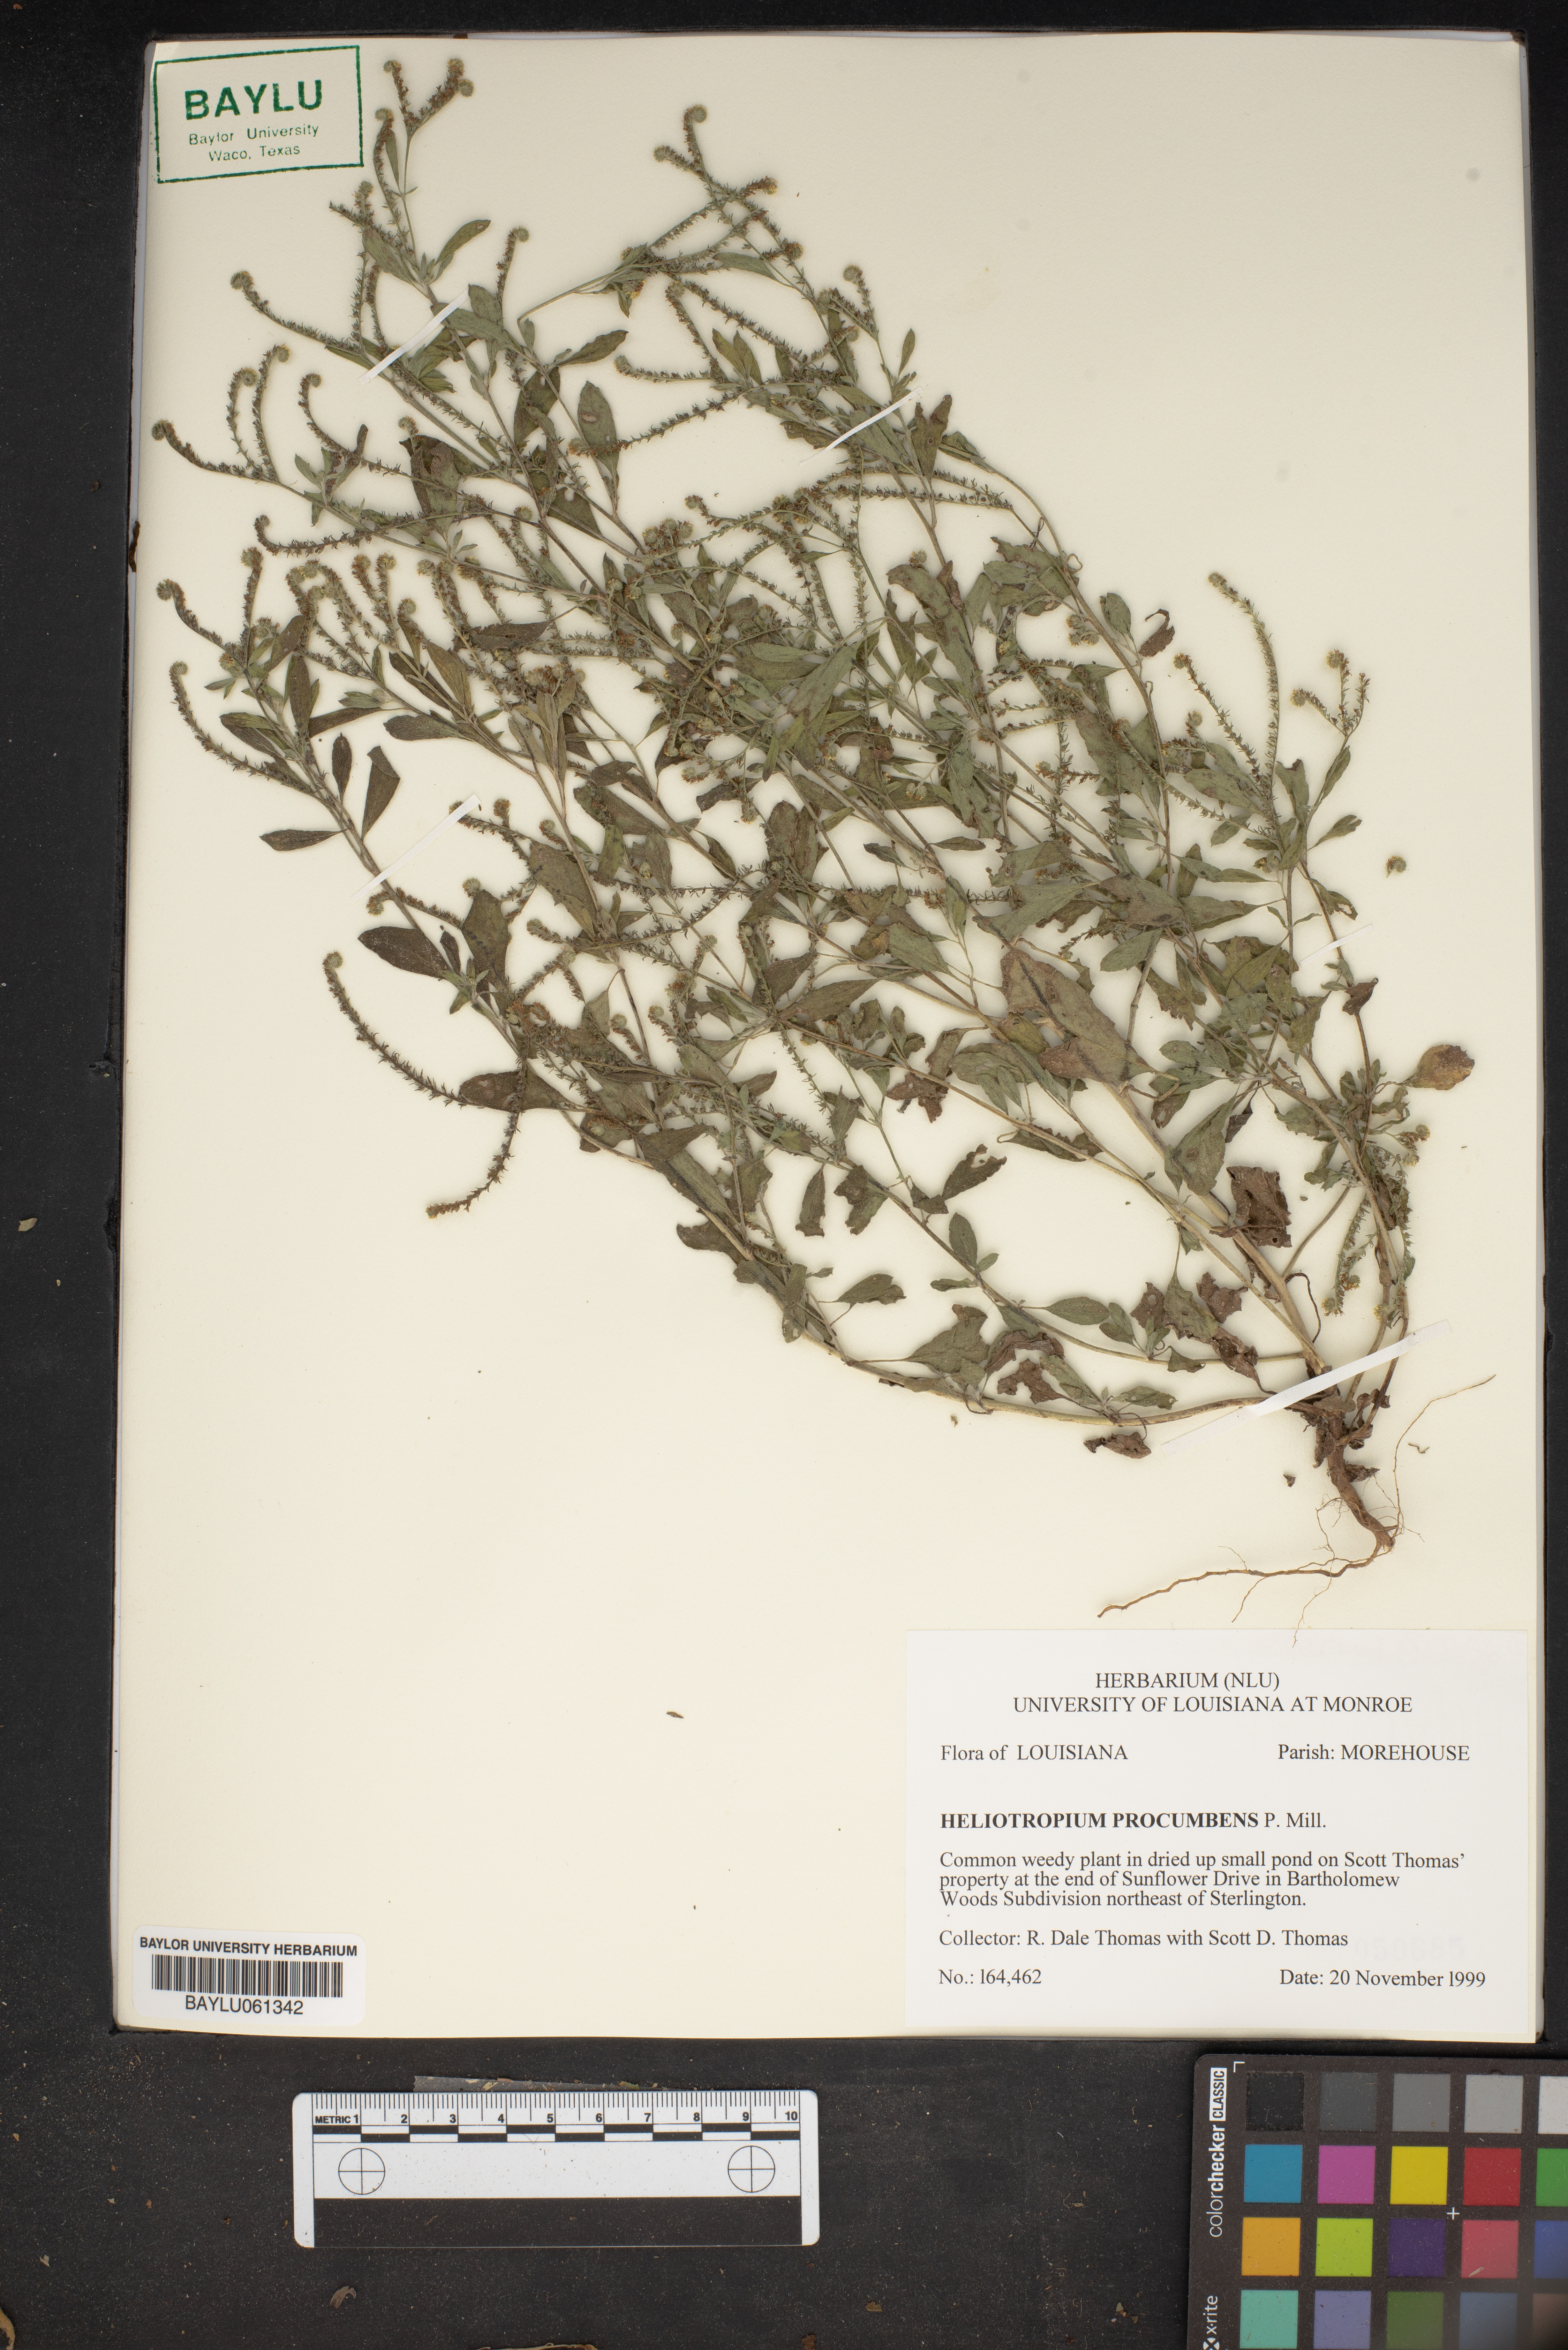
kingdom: Plantae
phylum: Tracheophyta
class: Magnoliopsida
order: Boraginales
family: Heliotropiaceae
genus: Euploca
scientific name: Euploca procumbens
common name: Fourspike heliotrope
